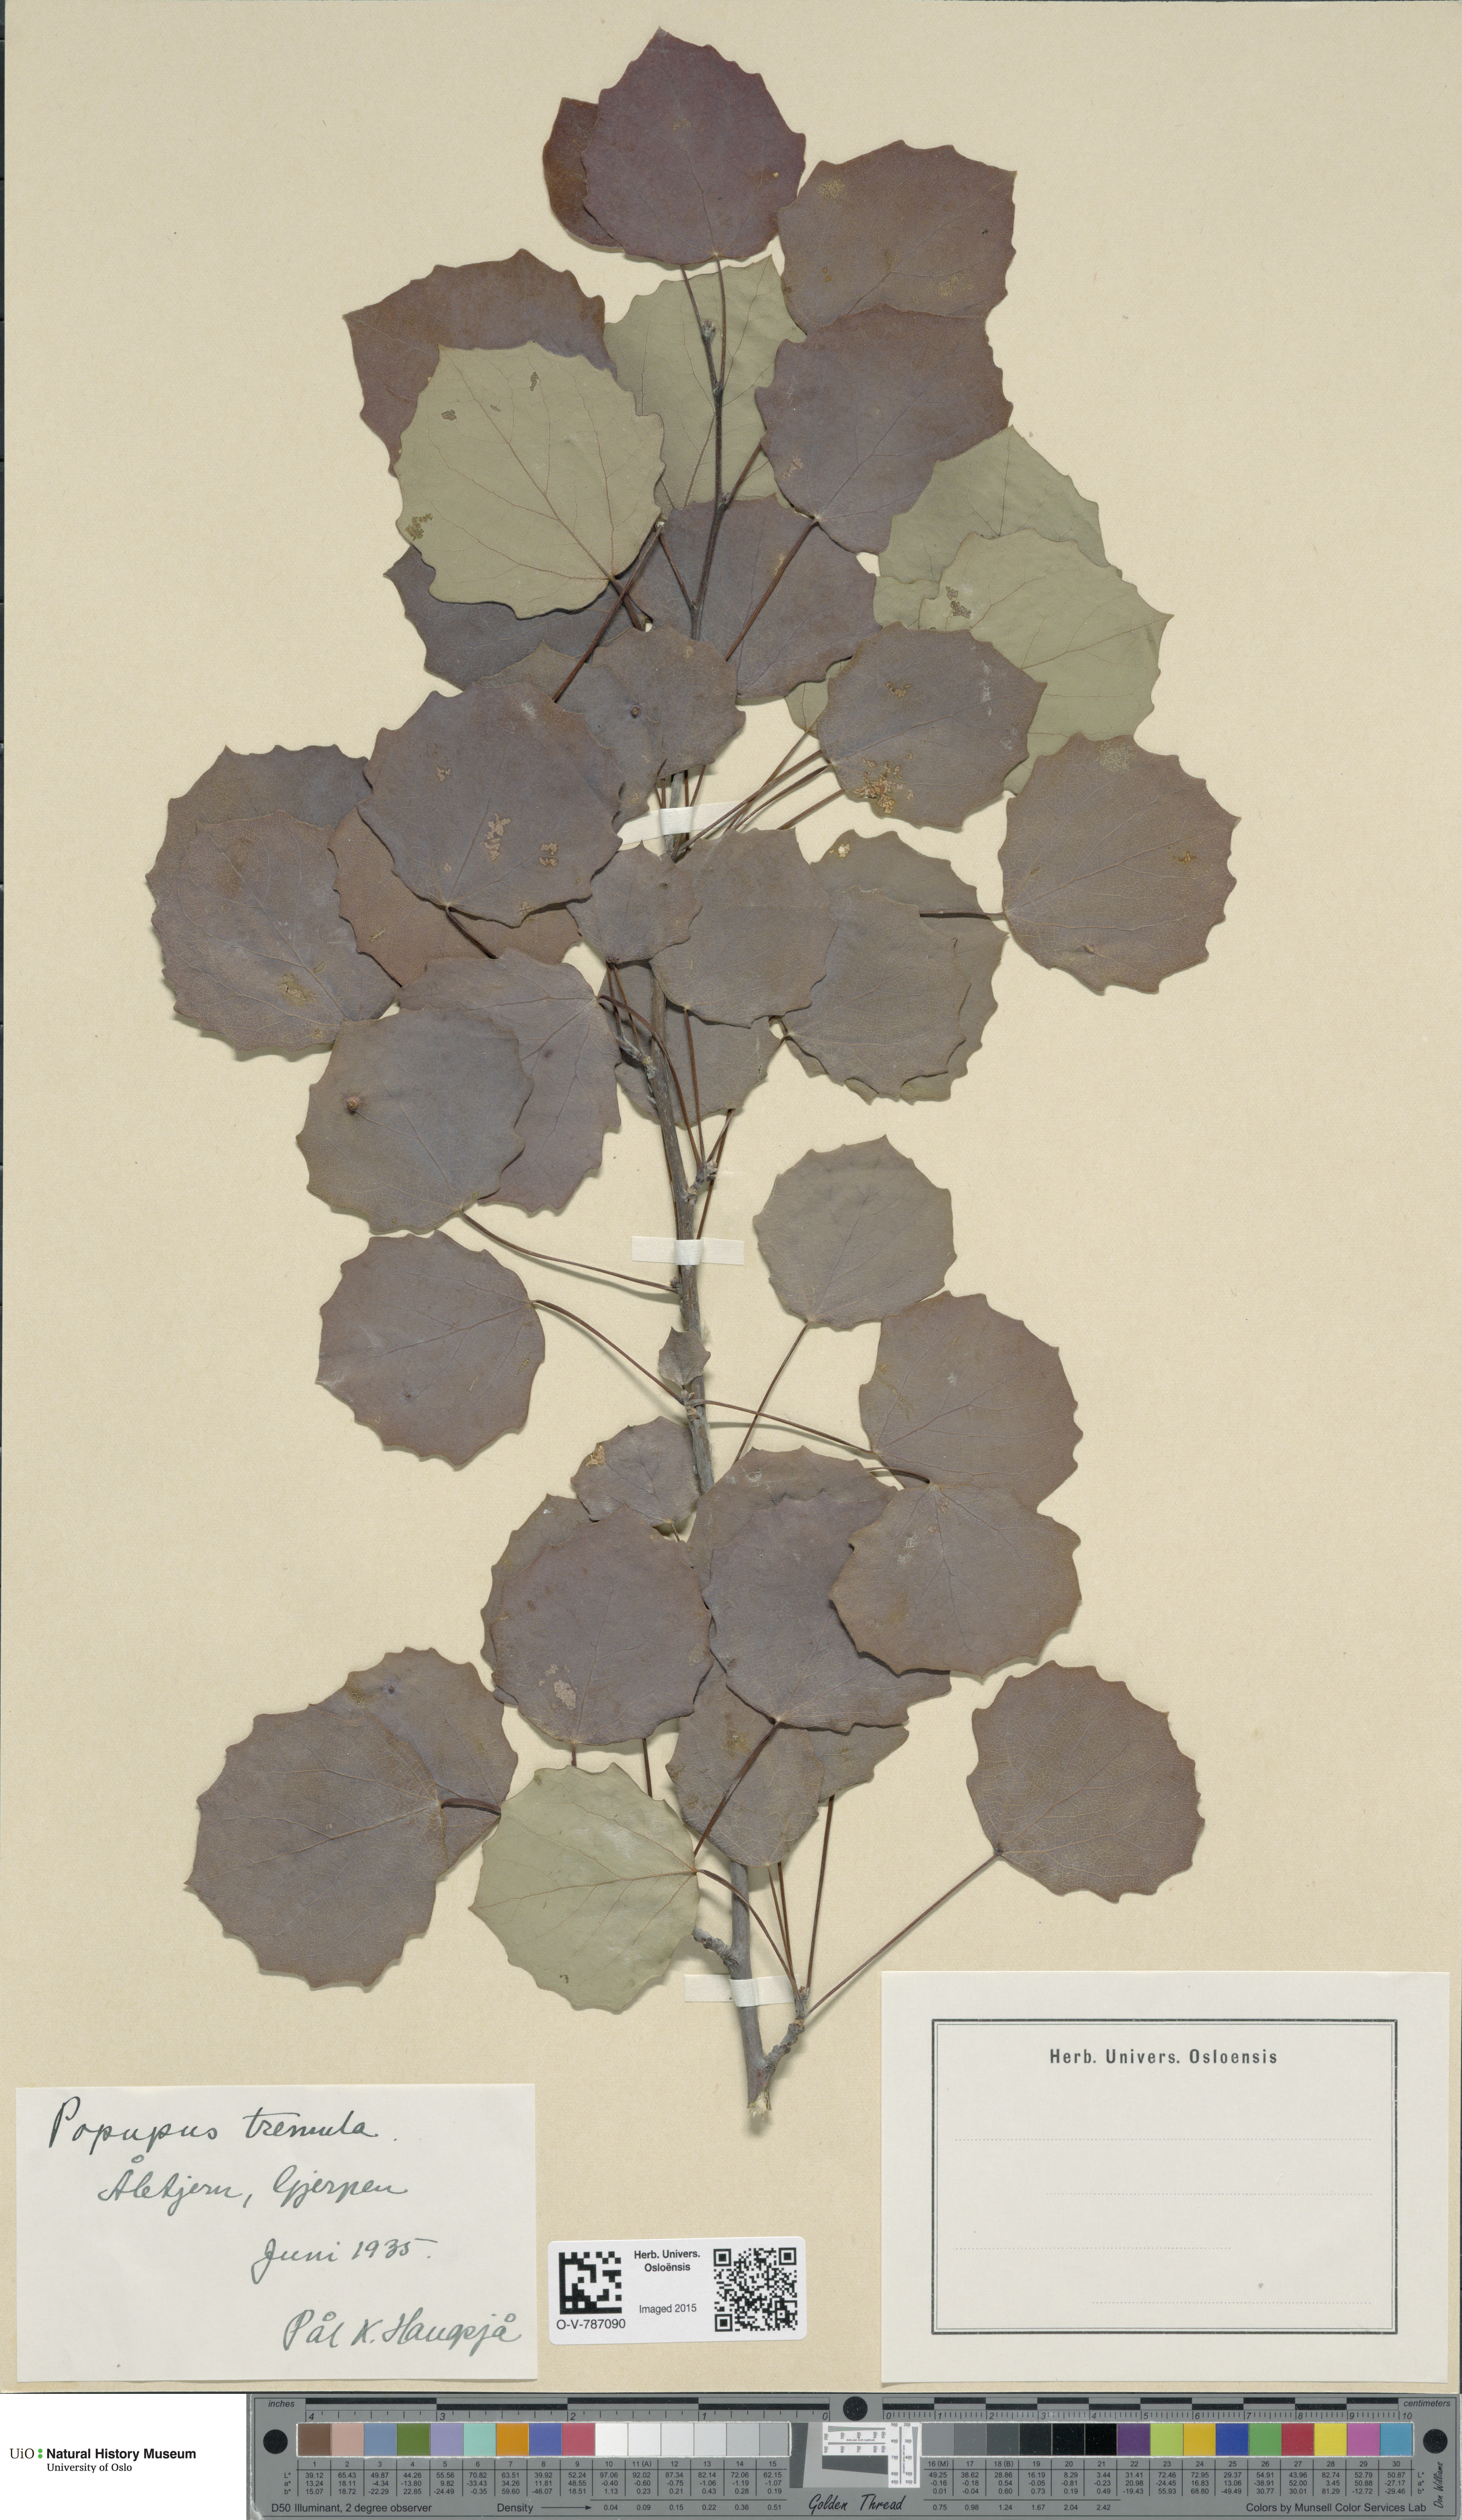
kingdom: Plantae
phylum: Tracheophyta
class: Magnoliopsida
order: Malpighiales
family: Salicaceae
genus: Populus
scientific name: Populus tremula
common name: European aspen
